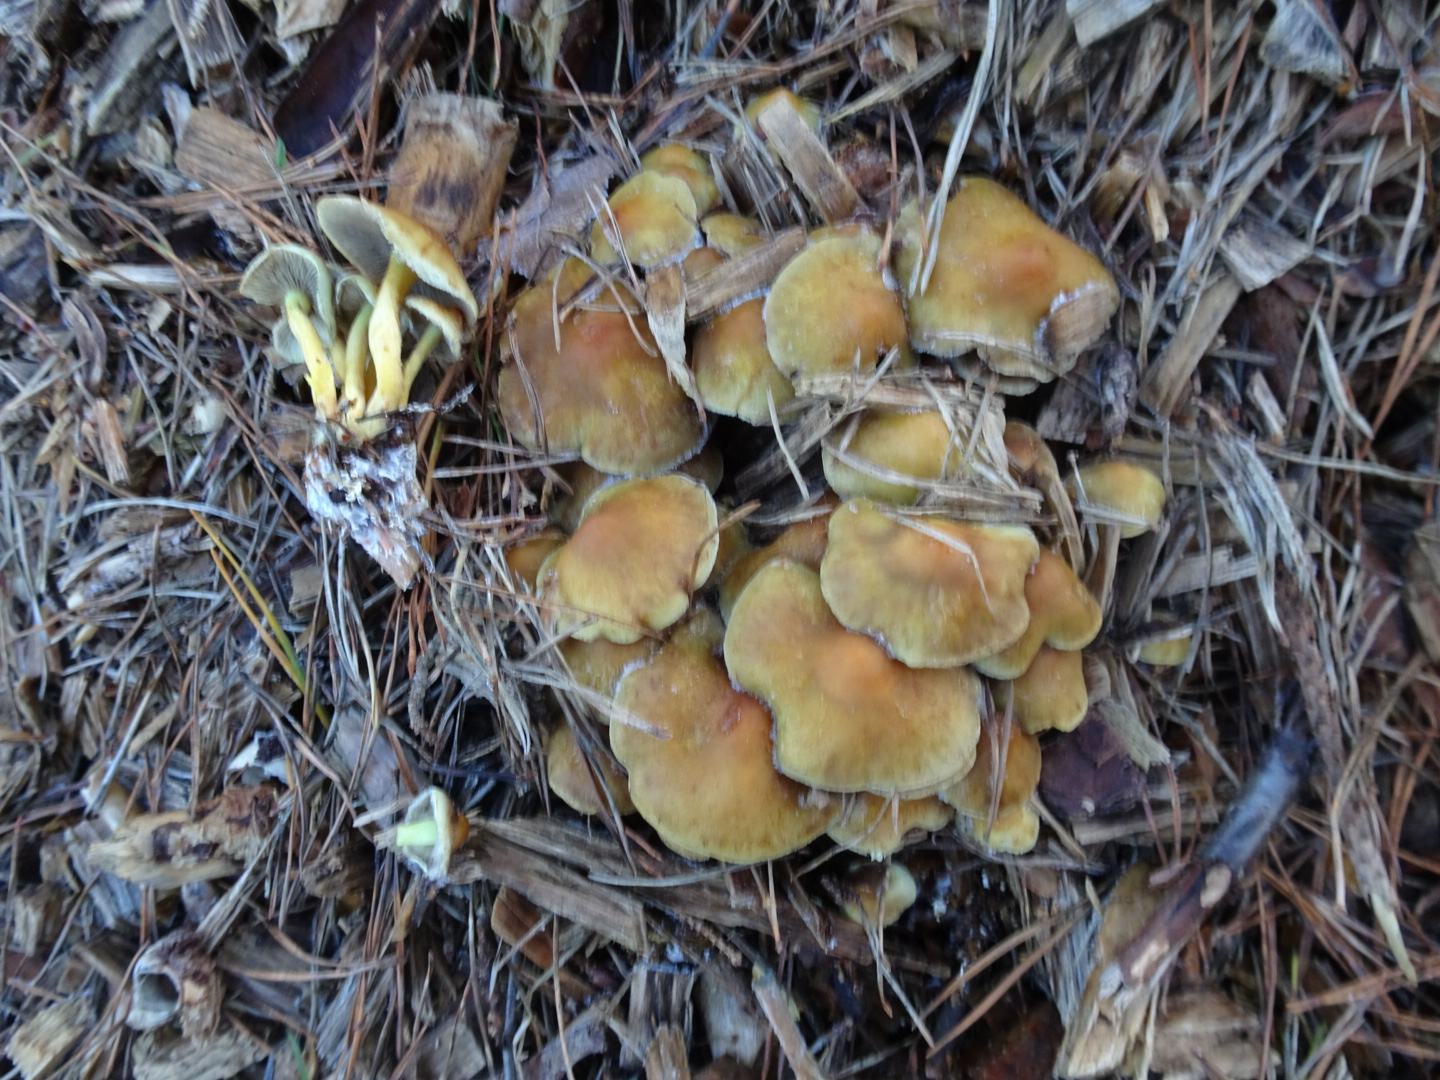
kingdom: Fungi
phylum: Basidiomycota
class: Agaricomycetes
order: Agaricales
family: Strophariaceae
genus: Hypholoma
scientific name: Hypholoma fasciculare
